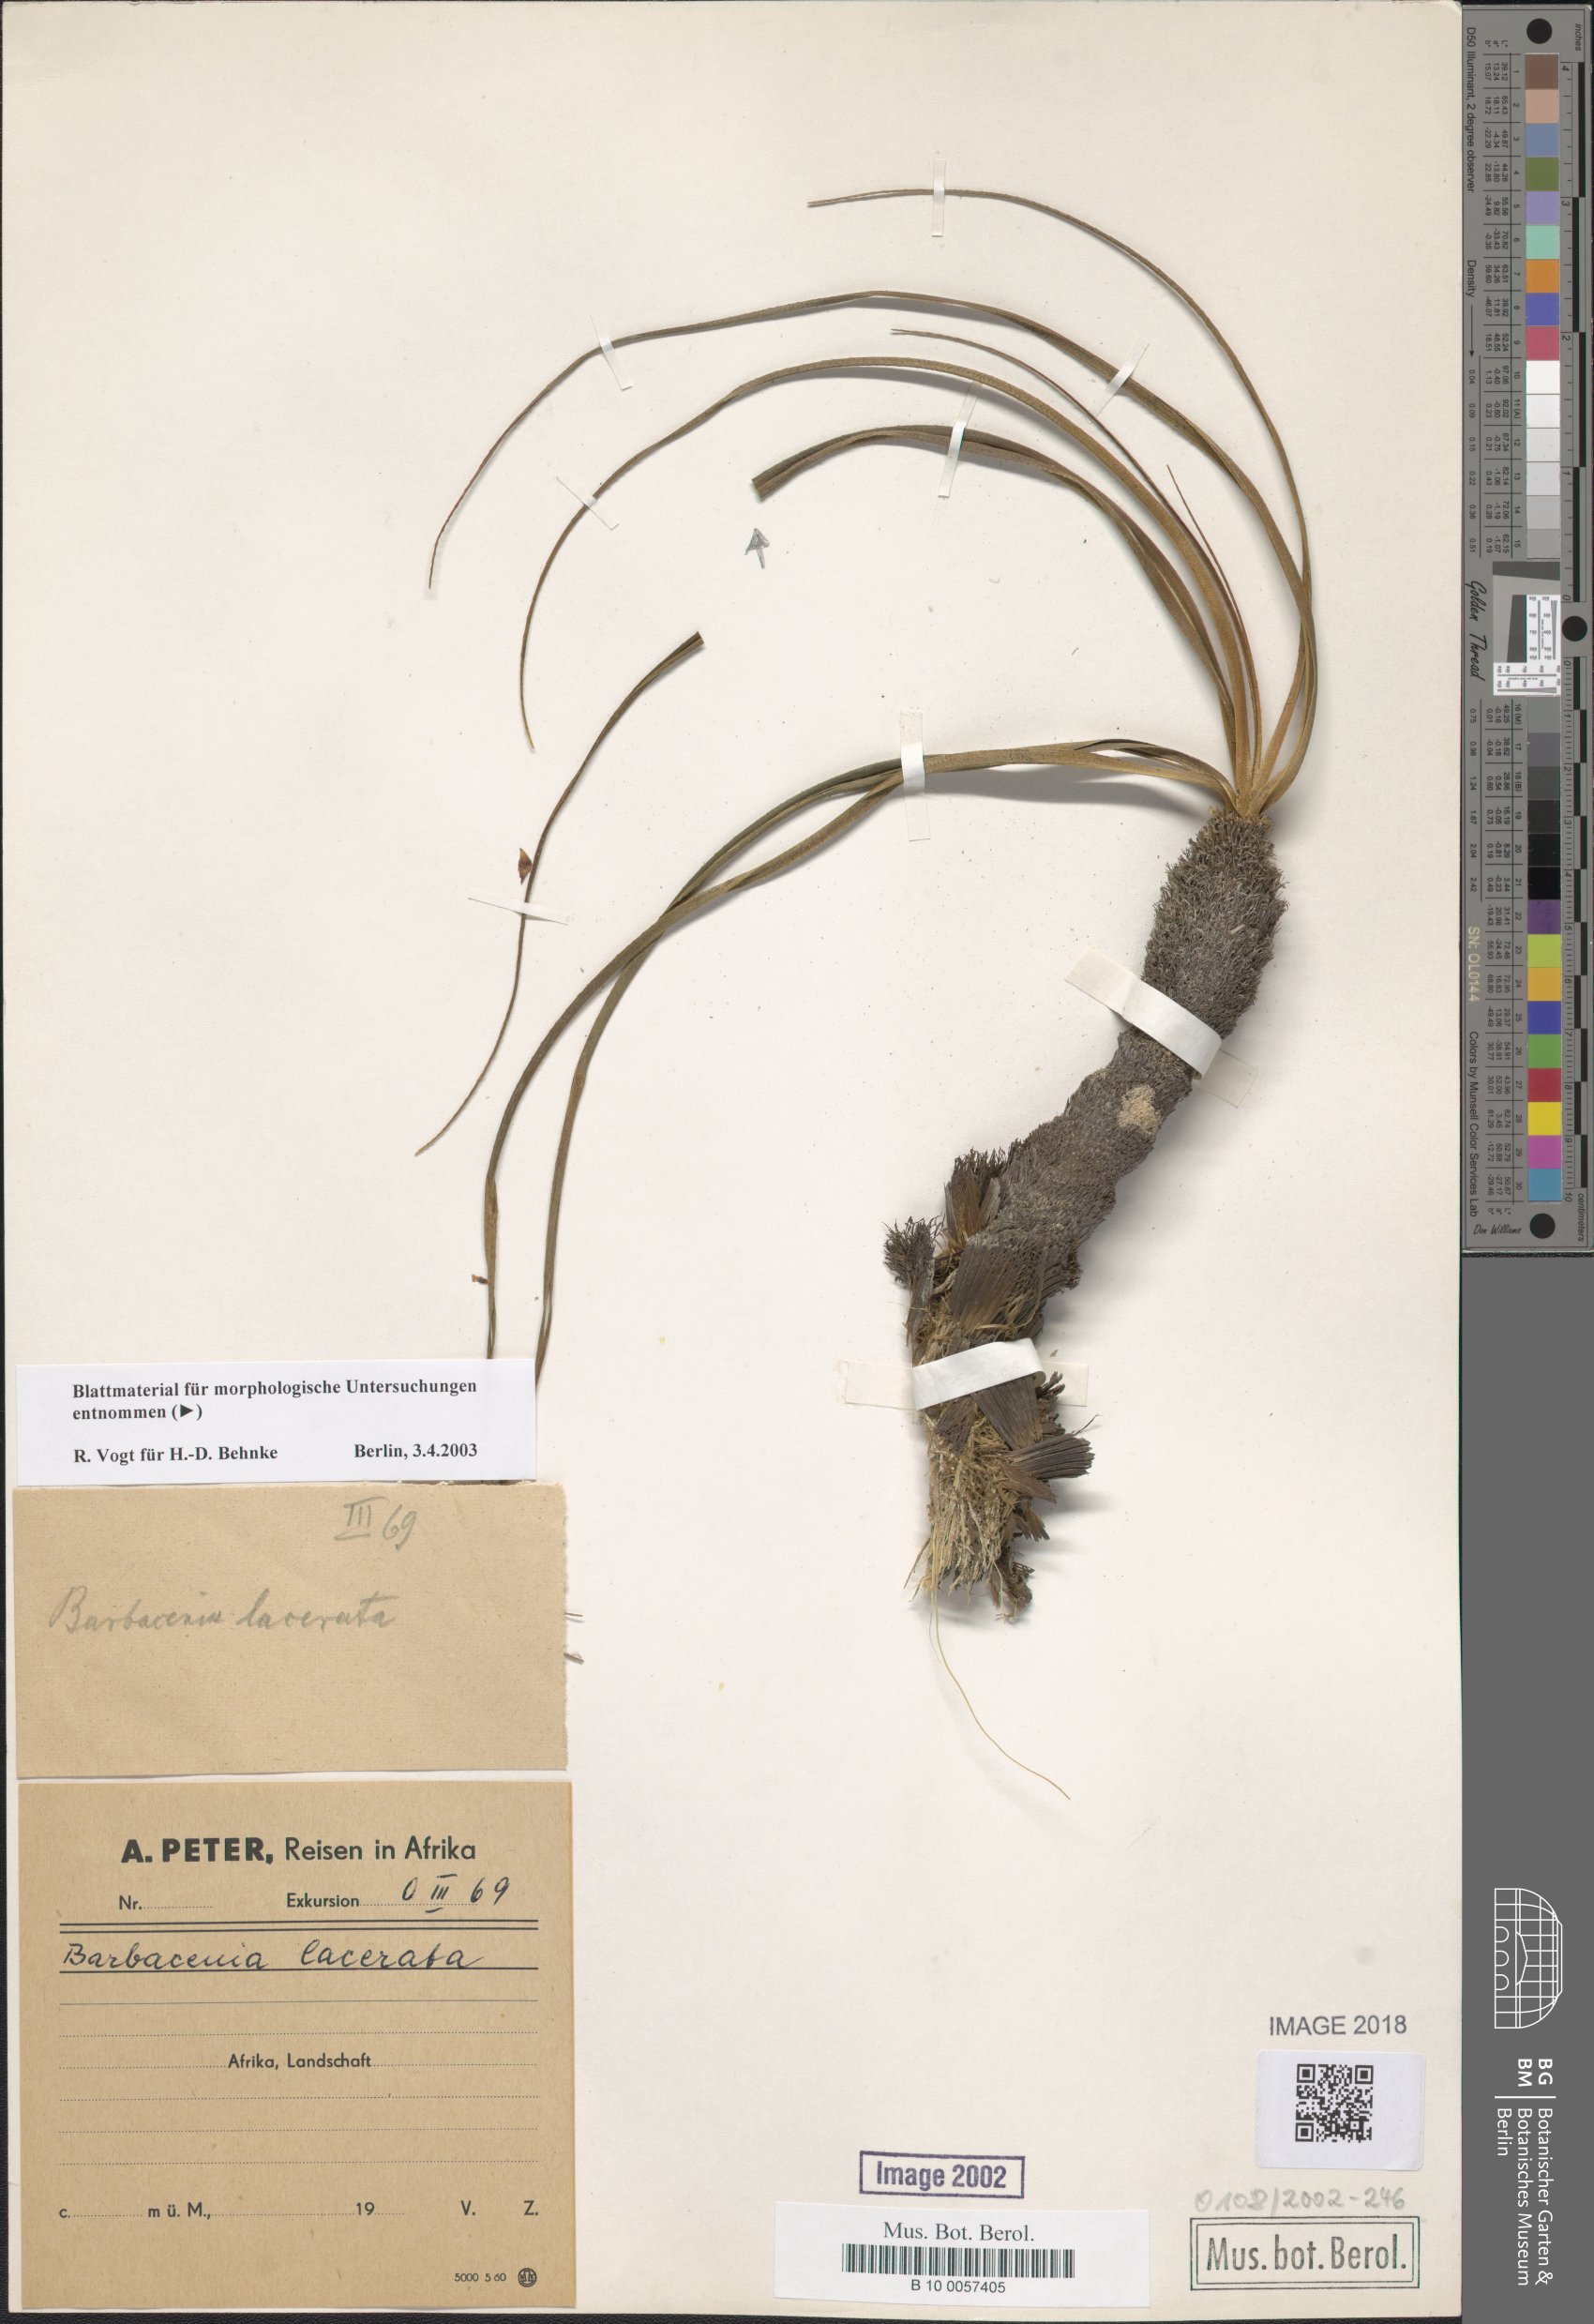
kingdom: Plantae
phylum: Tracheophyta
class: Liliopsida
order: Pandanales
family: Velloziaceae
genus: Xerophyta
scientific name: Xerophyta
